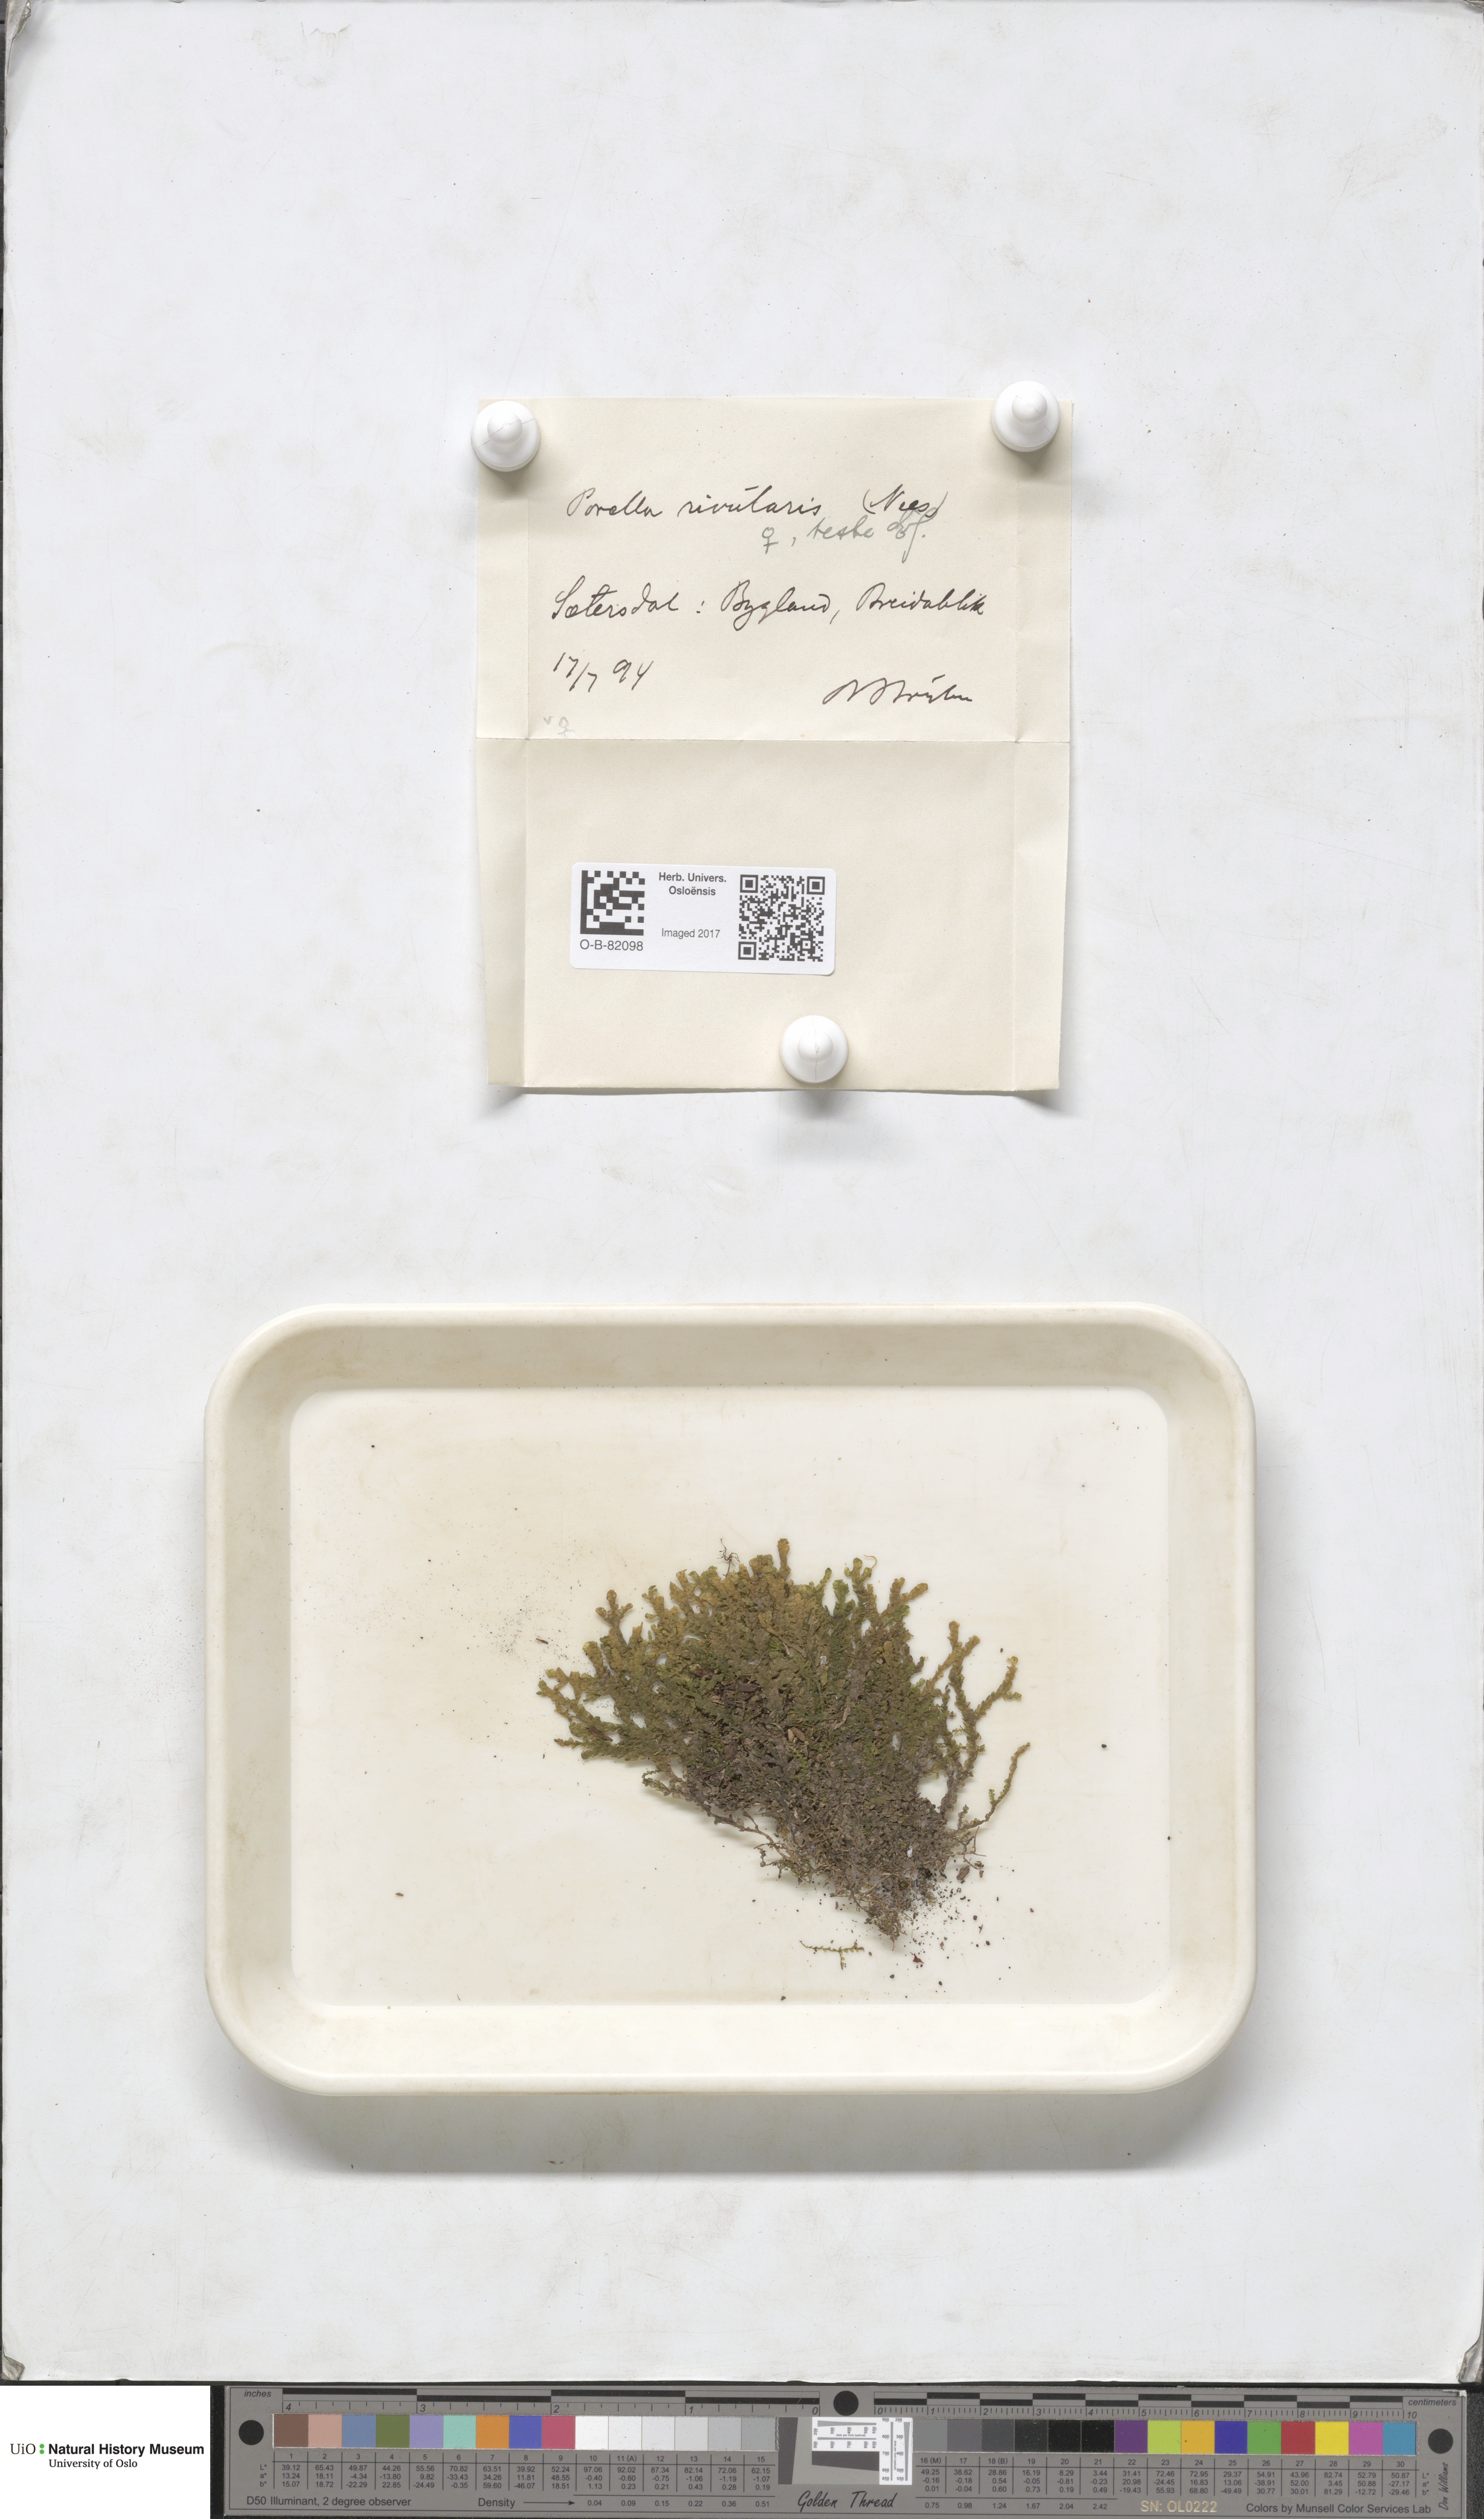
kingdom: Plantae
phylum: Marchantiophyta
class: Jungermanniopsida
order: Porellales
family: Porellaceae
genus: Porella
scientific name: Porella cordaeana
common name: Cliff scalewort
